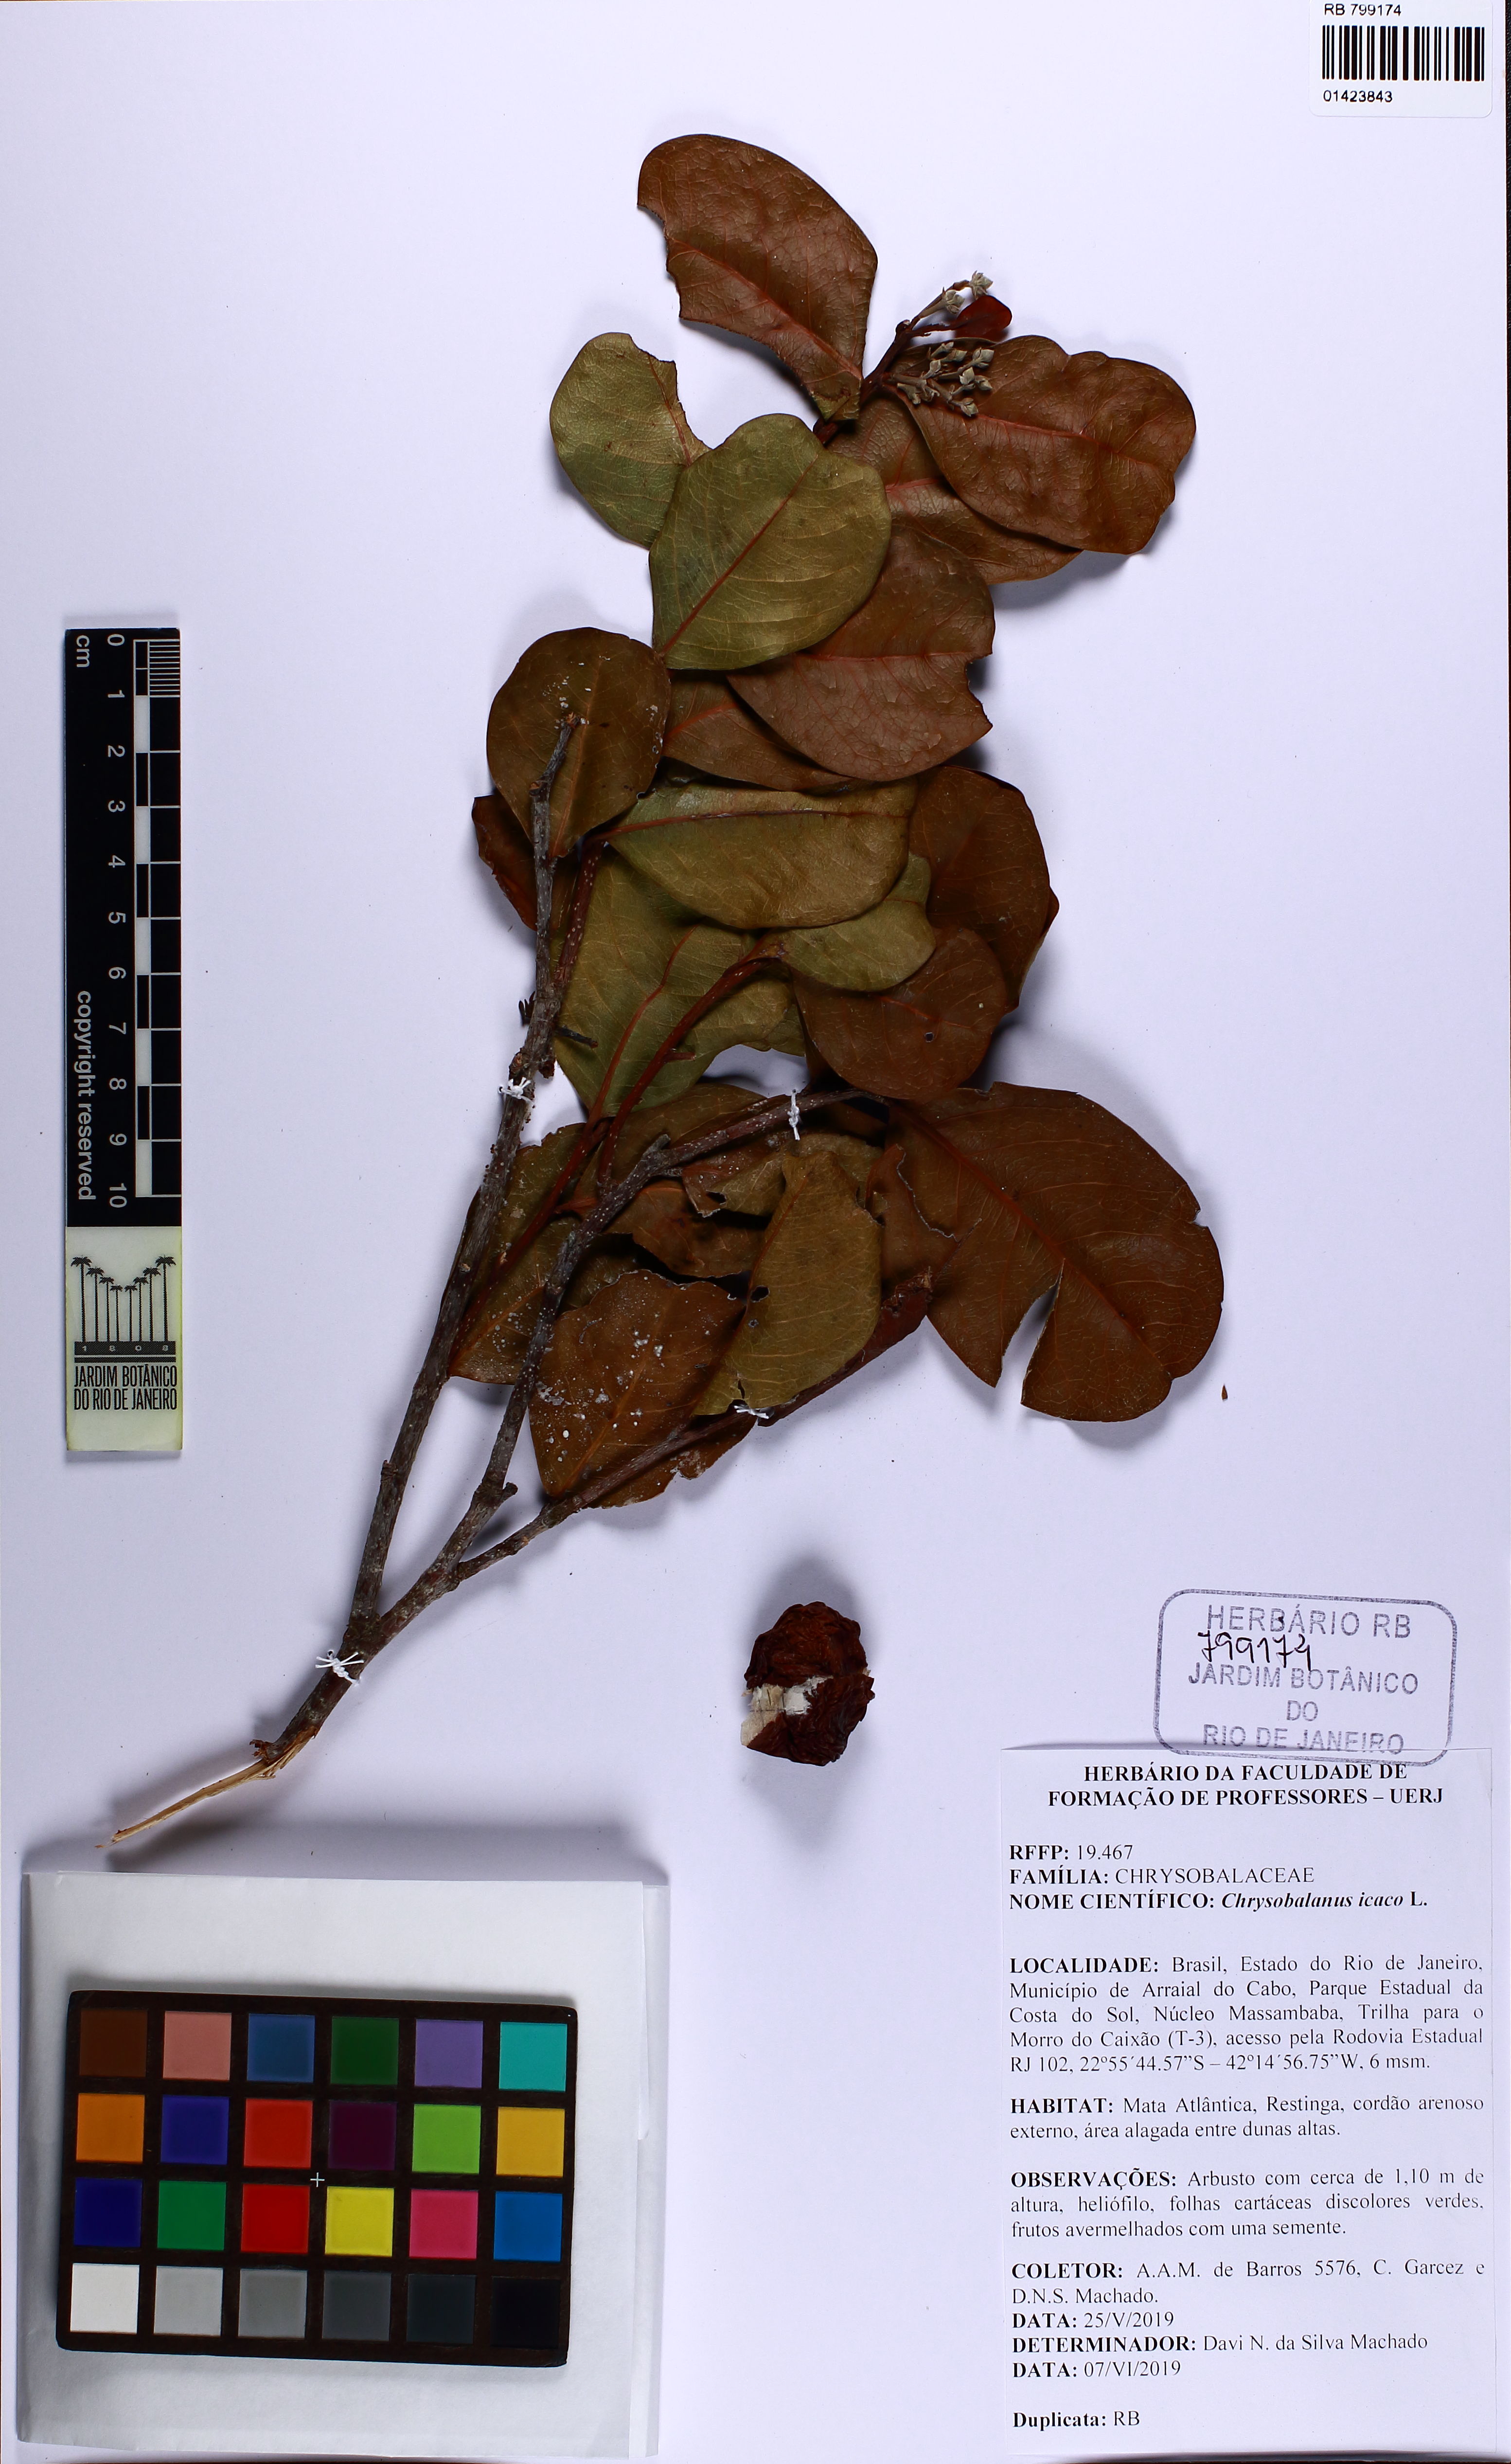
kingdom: Plantae
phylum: Tracheophyta
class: Magnoliopsida
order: Malpighiales
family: Chrysobalanaceae
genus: Chrysobalanus
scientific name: Chrysobalanus icaco
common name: Coco plum
